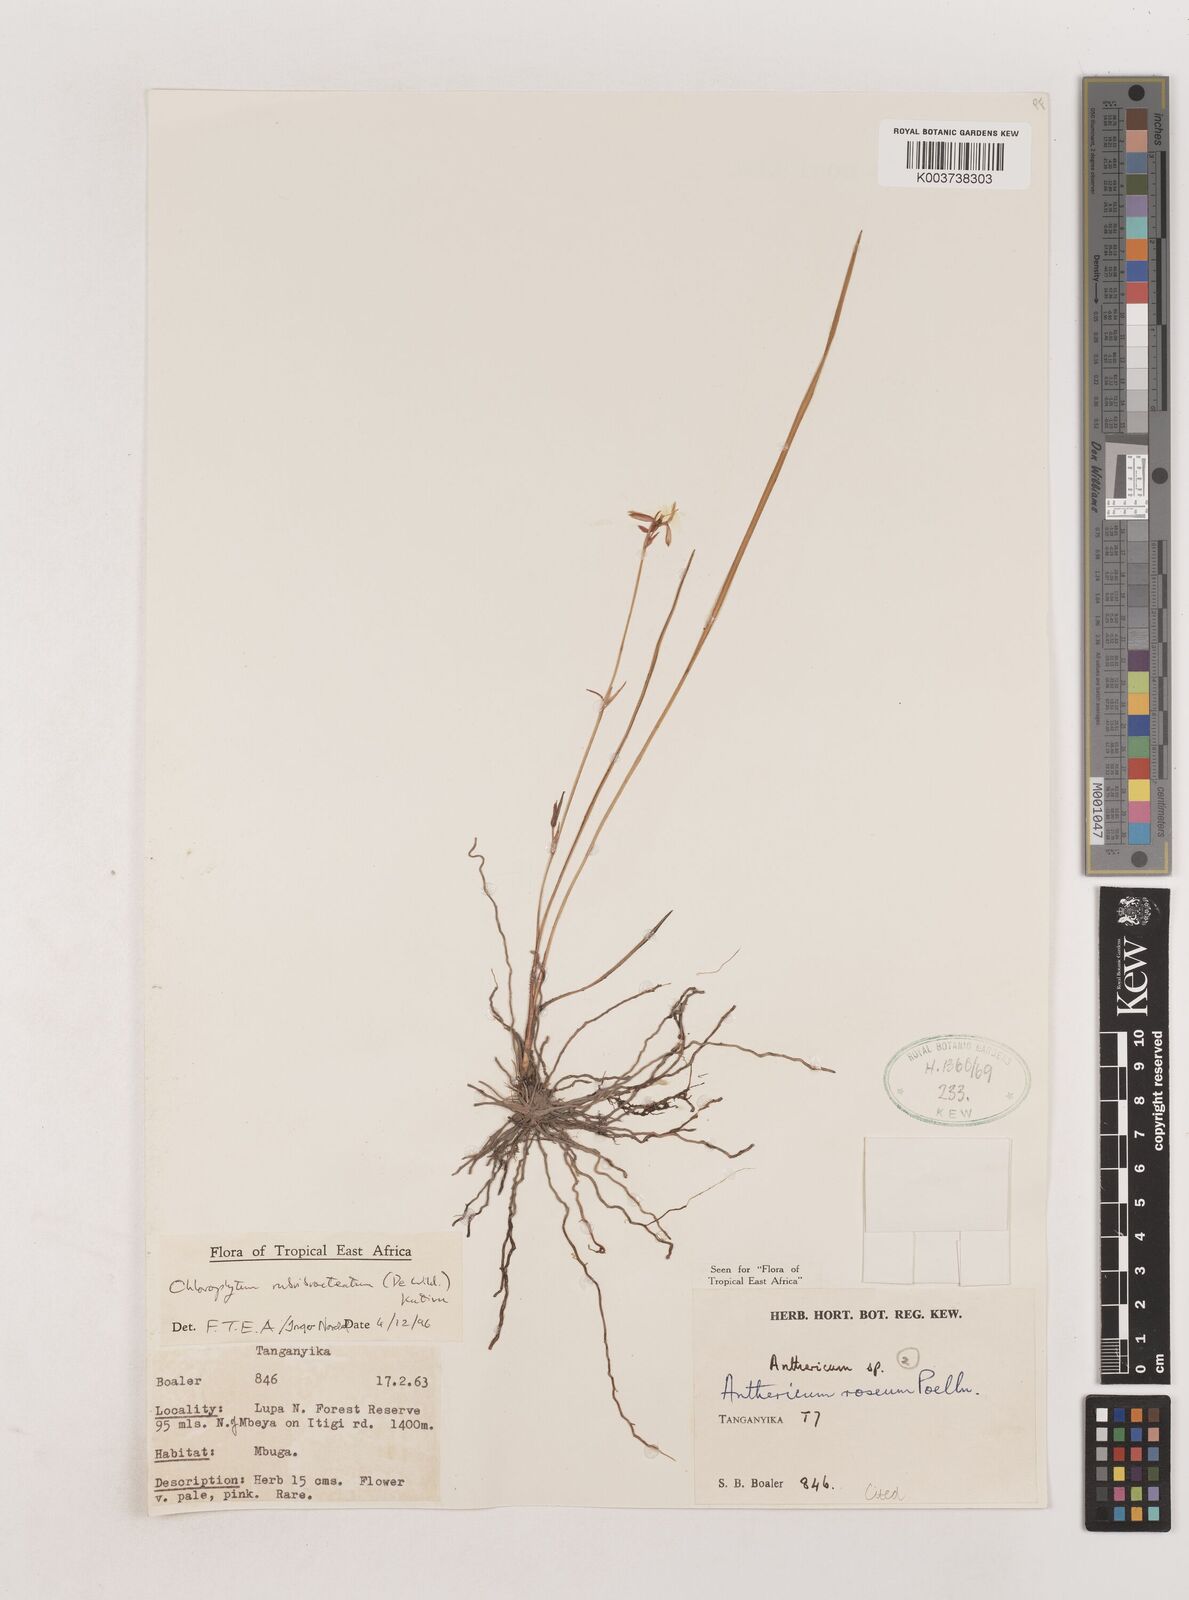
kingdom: Plantae
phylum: Tracheophyta
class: Liliopsida
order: Asparagales
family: Asparagaceae
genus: Chlorophytum
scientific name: Chlorophytum rubribracteatum
